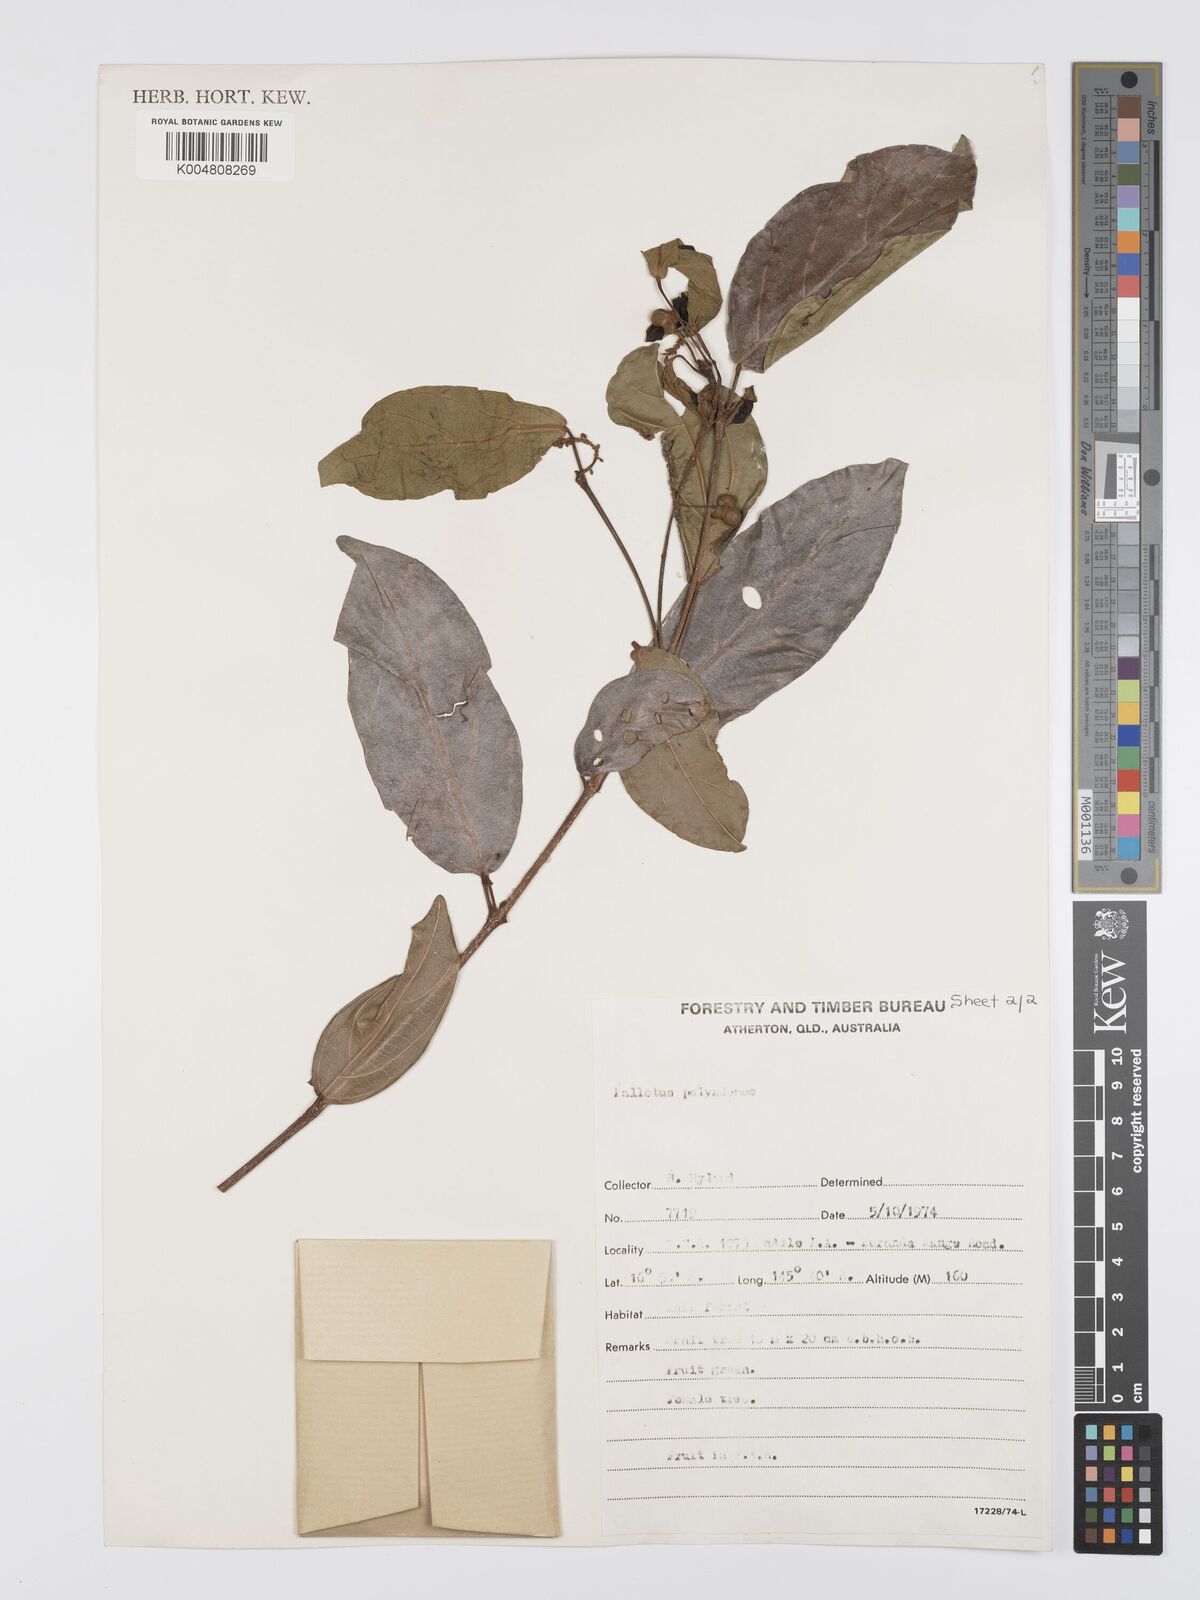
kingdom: Plantae
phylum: Tracheophyta
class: Magnoliopsida
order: Malpighiales
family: Euphorbiaceae
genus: Mallotus
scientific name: Mallotus polyadenos
